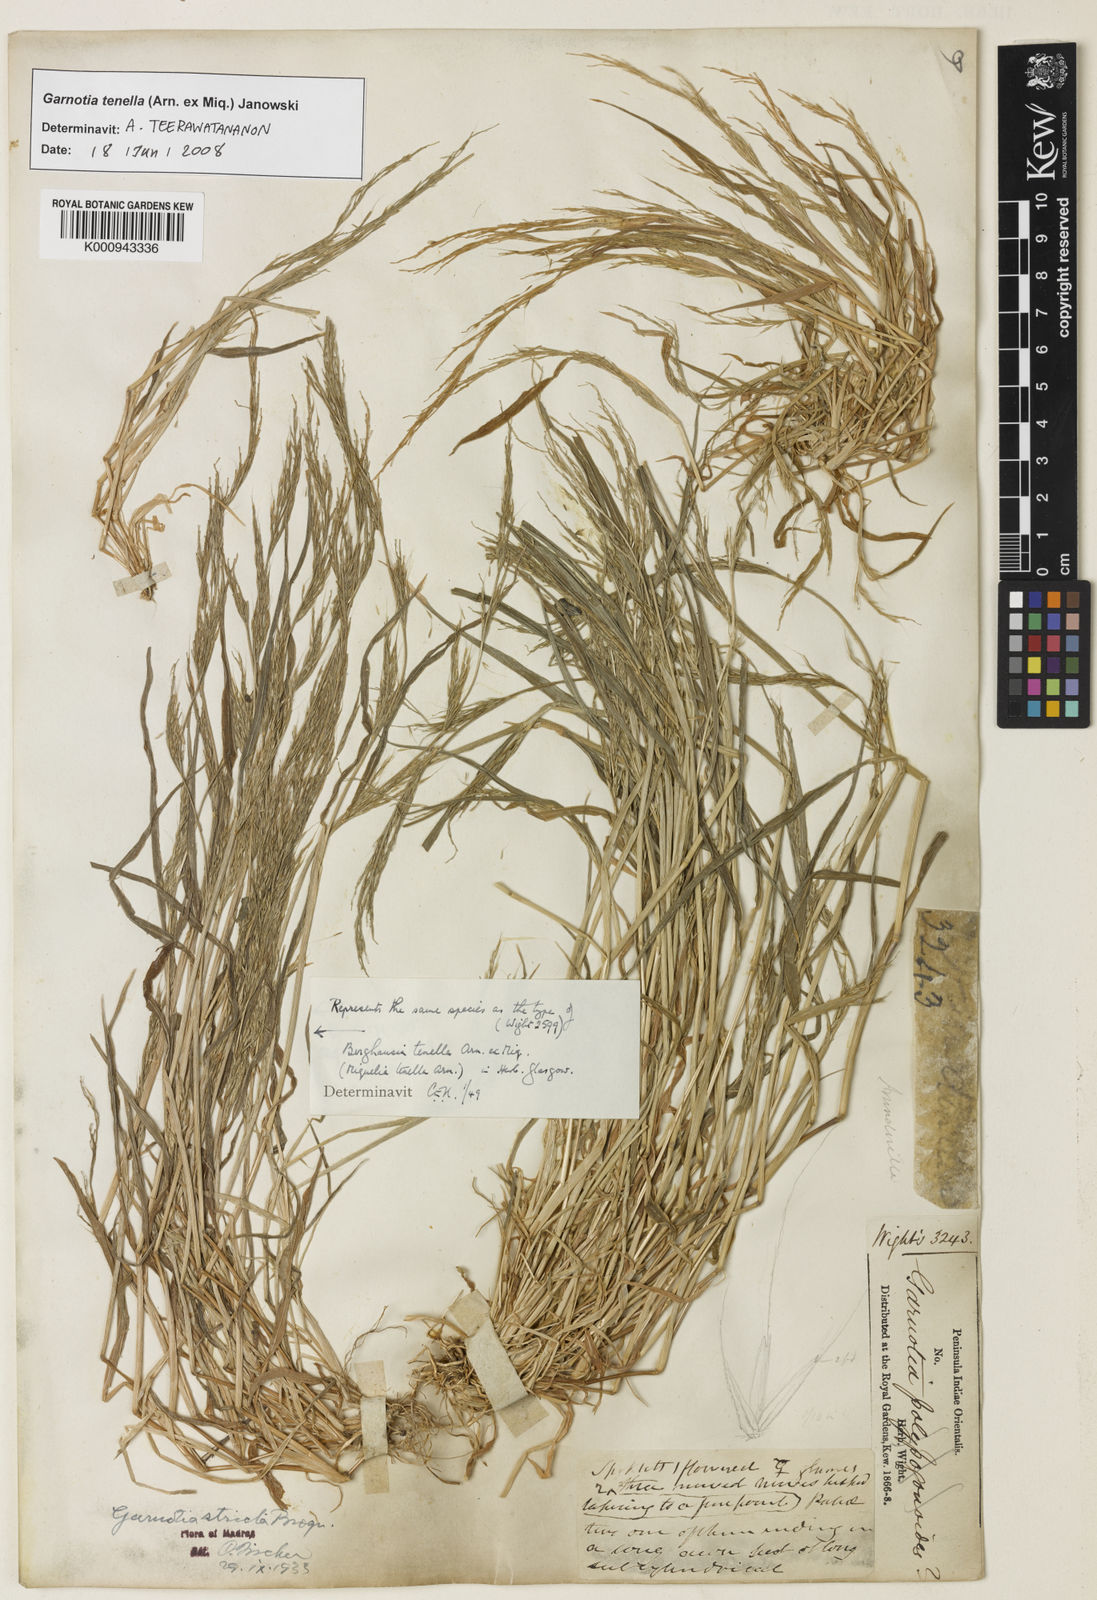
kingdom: Plantae
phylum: Tracheophyta
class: Liliopsida
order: Poales
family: Poaceae
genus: Garnotia
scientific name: Garnotia stricta
